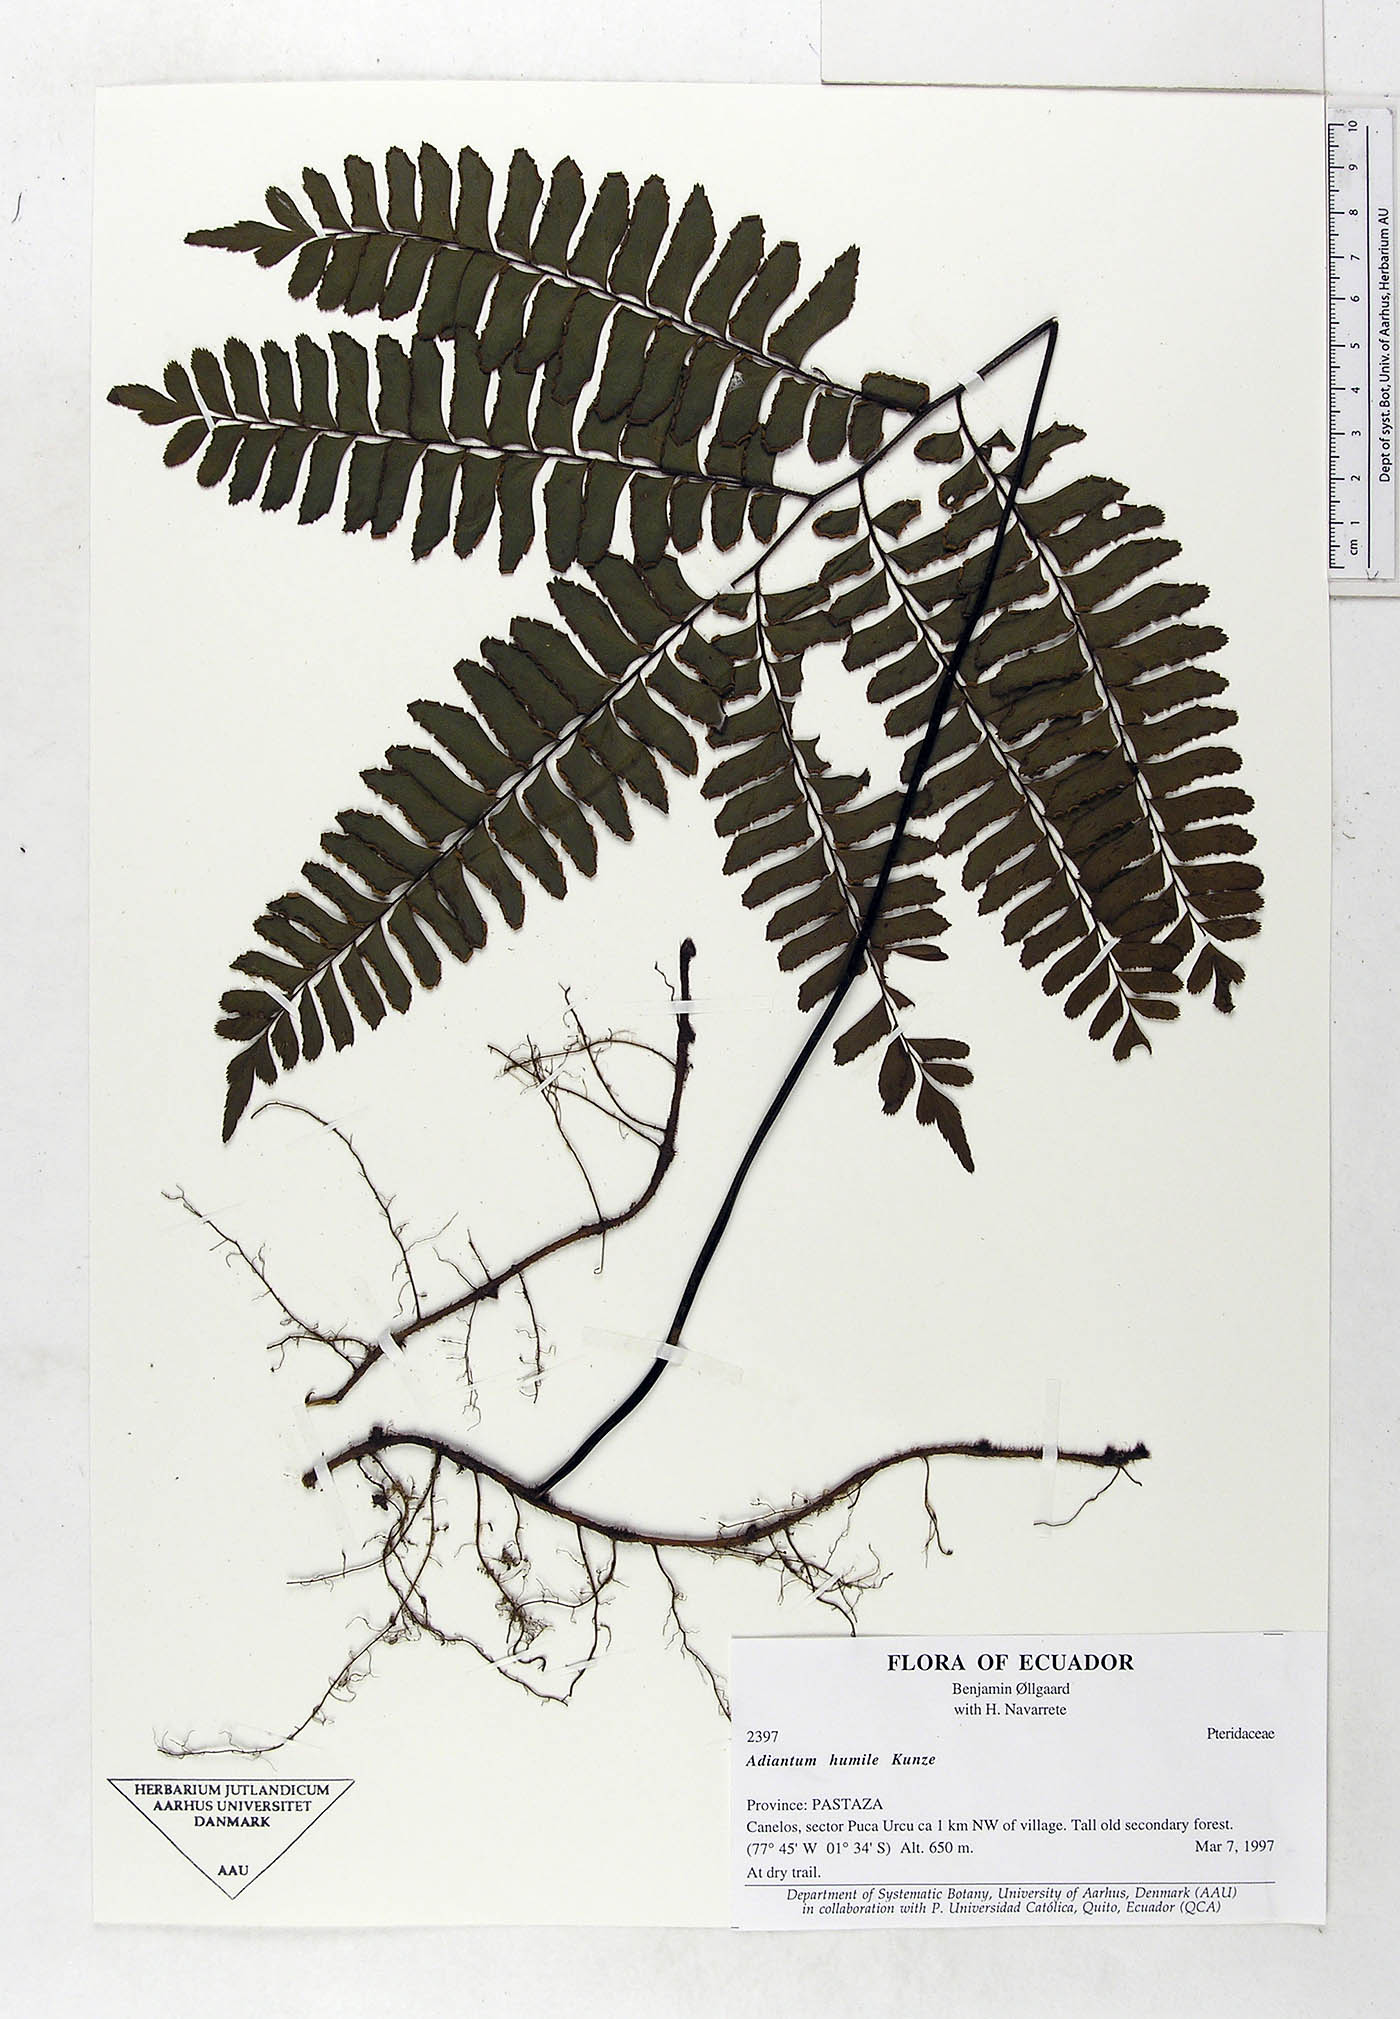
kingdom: Plantae
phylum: Tracheophyta
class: Polypodiopsida
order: Polypodiales
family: Pteridaceae
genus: Adiantum
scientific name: Adiantum humile
